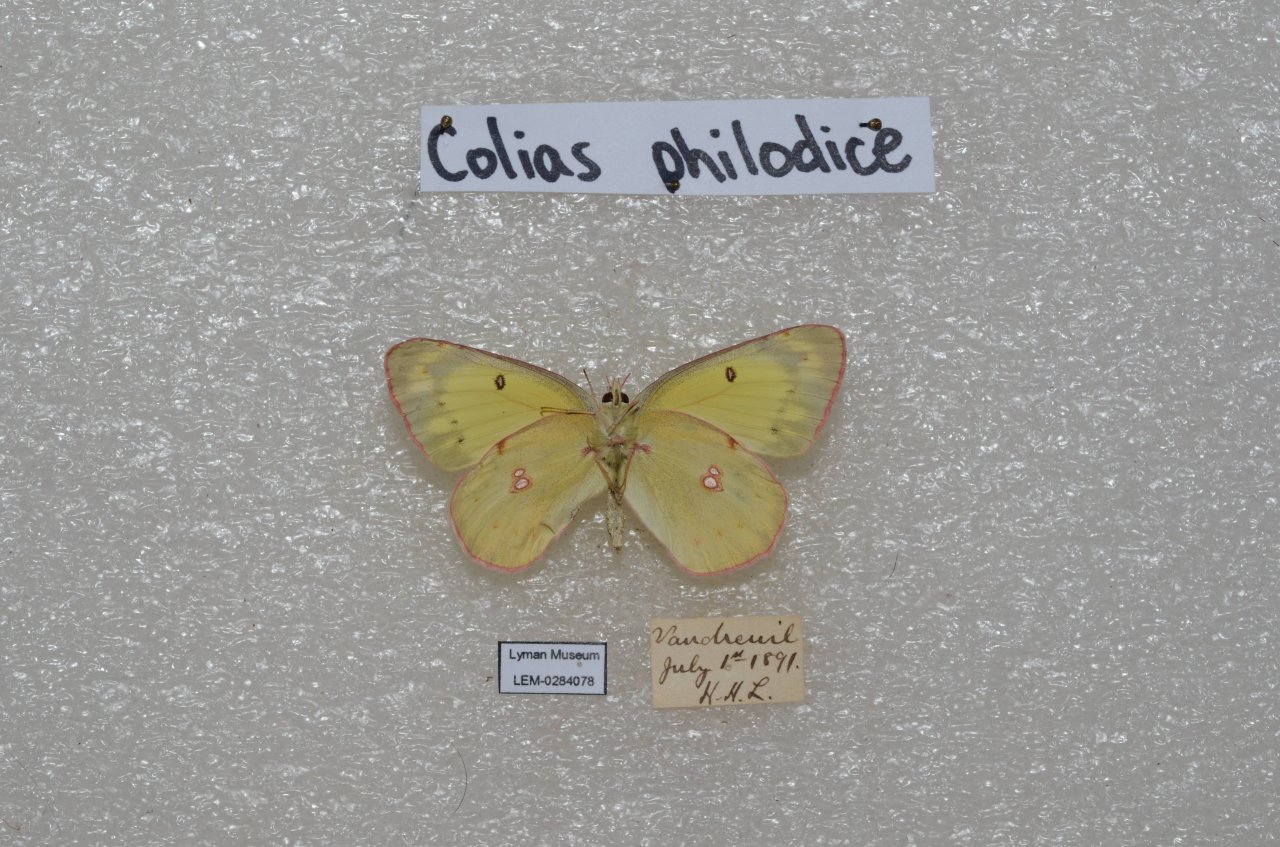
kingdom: Animalia
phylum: Arthropoda
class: Insecta
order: Lepidoptera
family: Pieridae
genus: Colias
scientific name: Colias philodice
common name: Clouded Sulphur
